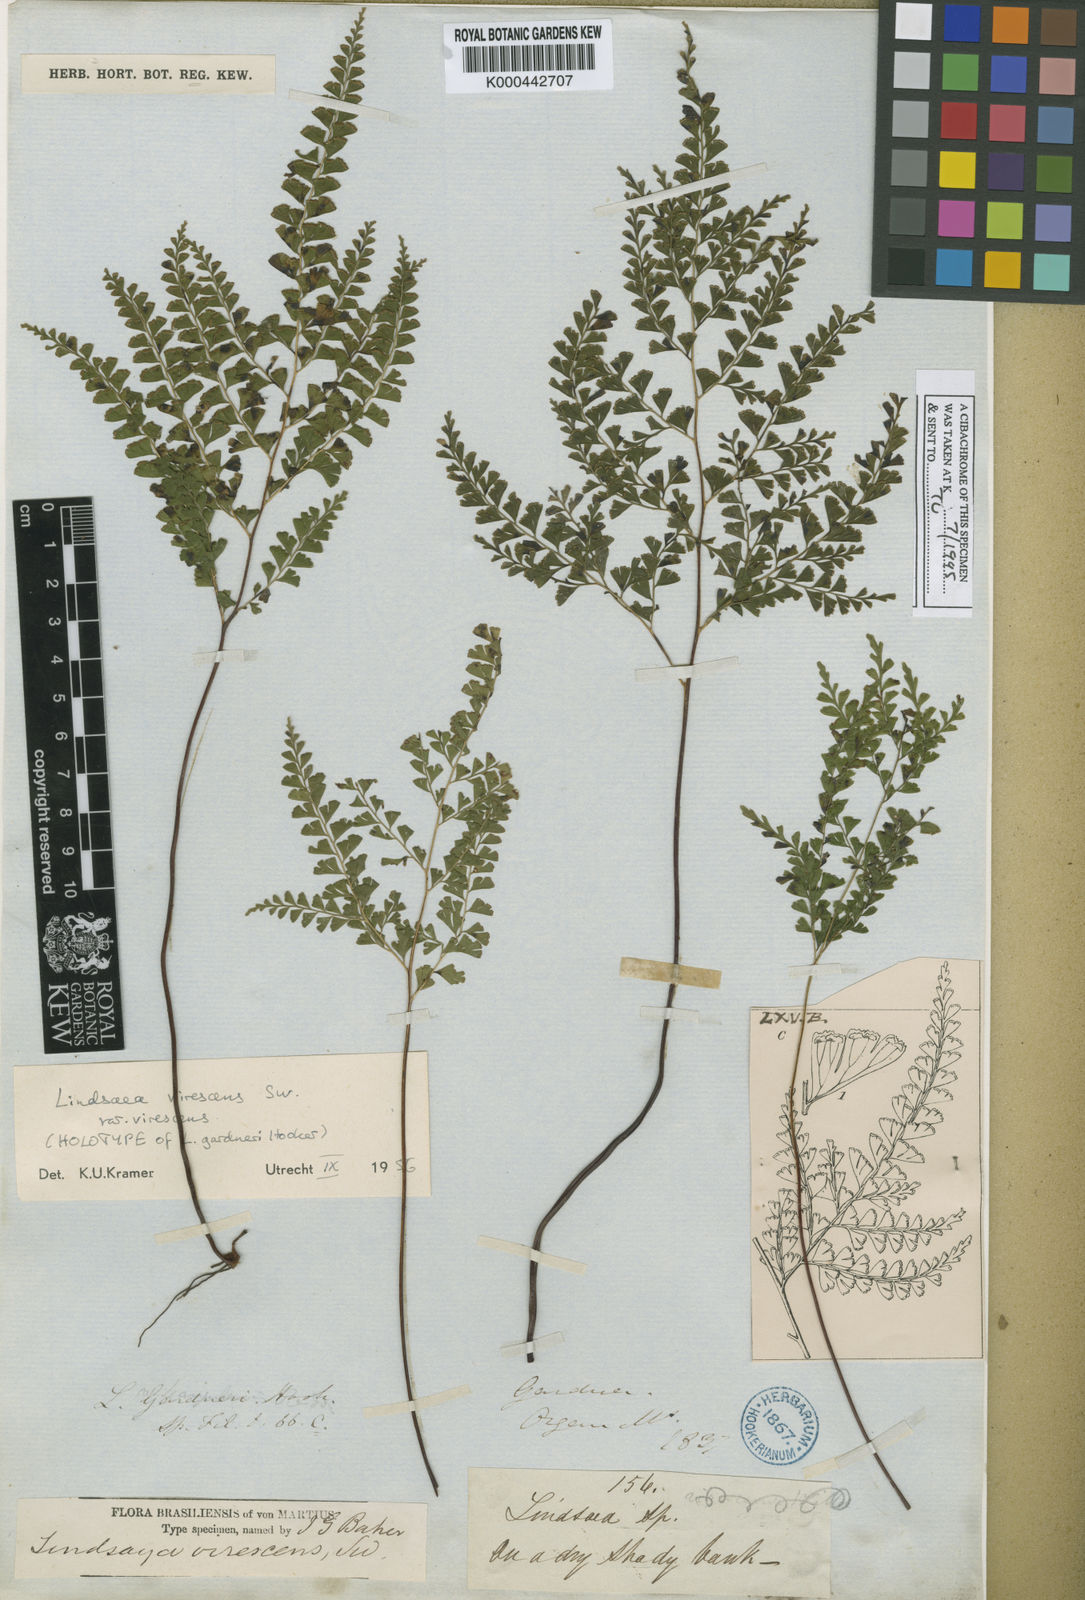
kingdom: Plantae
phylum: Tracheophyta
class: Polypodiopsida
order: Polypodiales
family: Lindsaeaceae
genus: Lindsaea
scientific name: Lindsaea virescens
